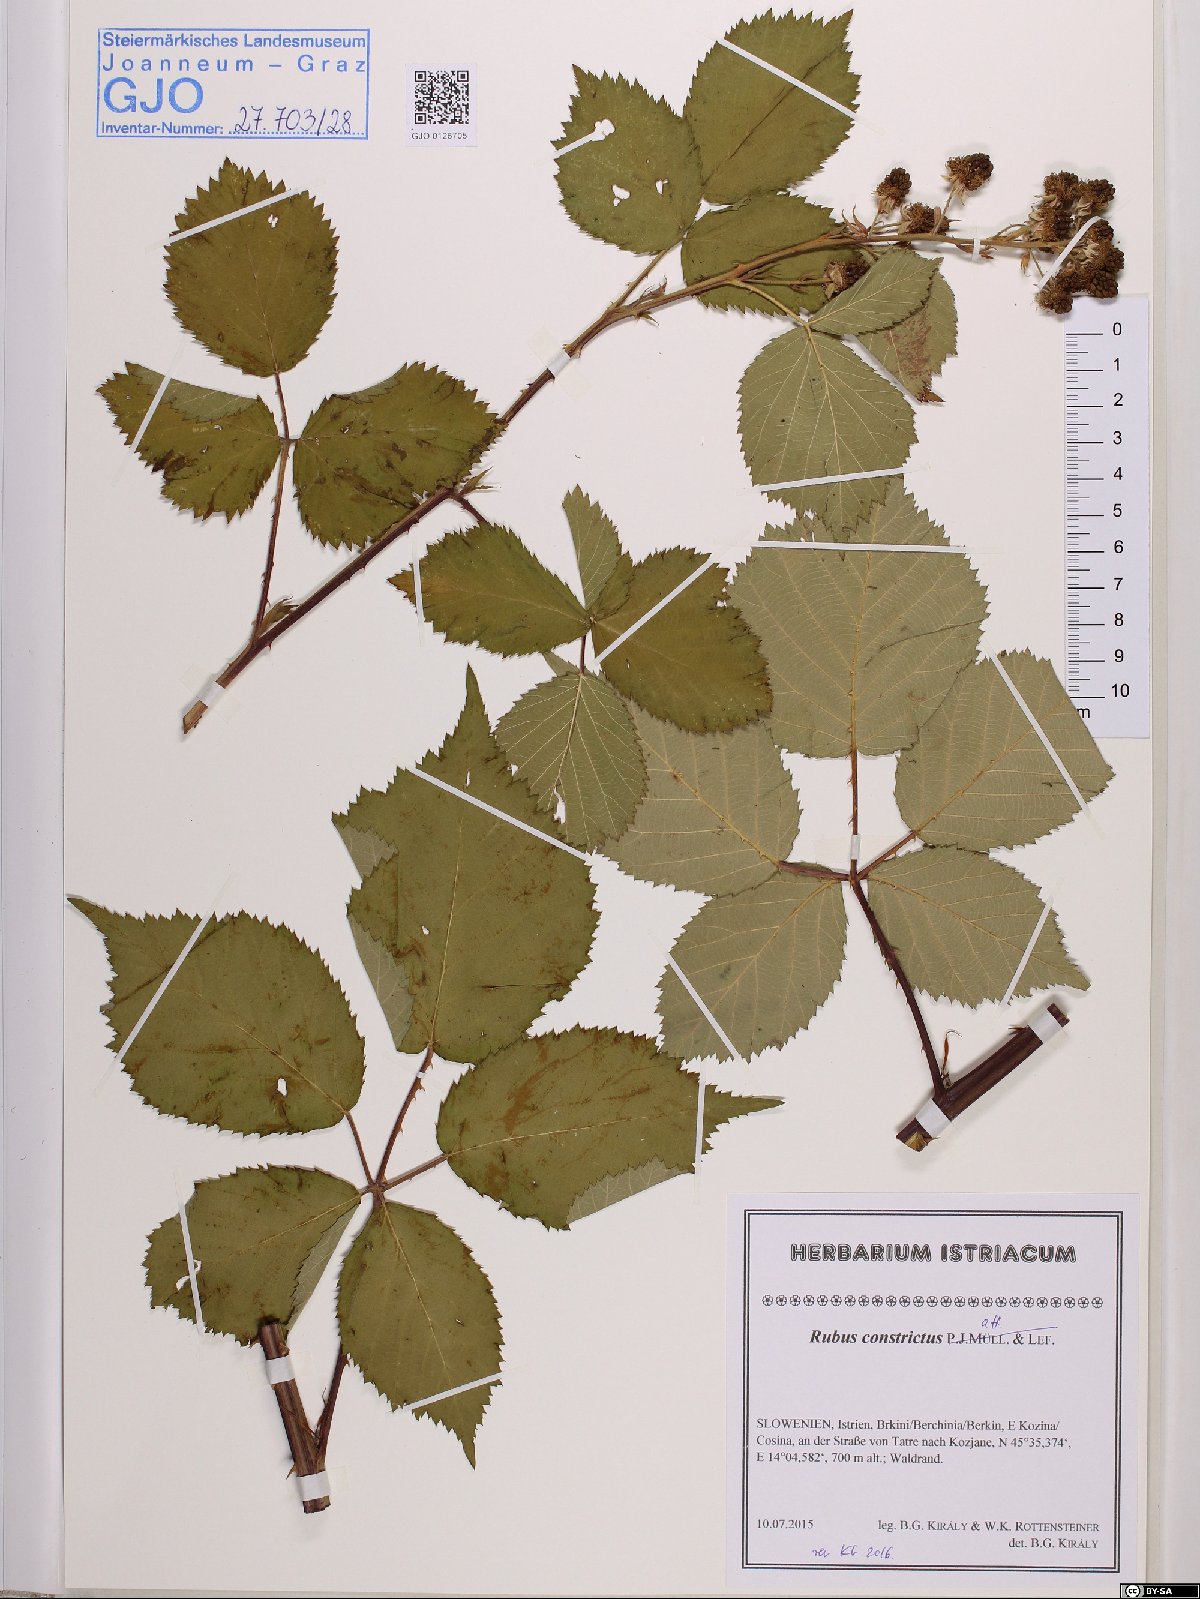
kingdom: Plantae
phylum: Tracheophyta
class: Magnoliopsida
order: Rosales
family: Rosaceae
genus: Rubus
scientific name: Rubus constrictus
